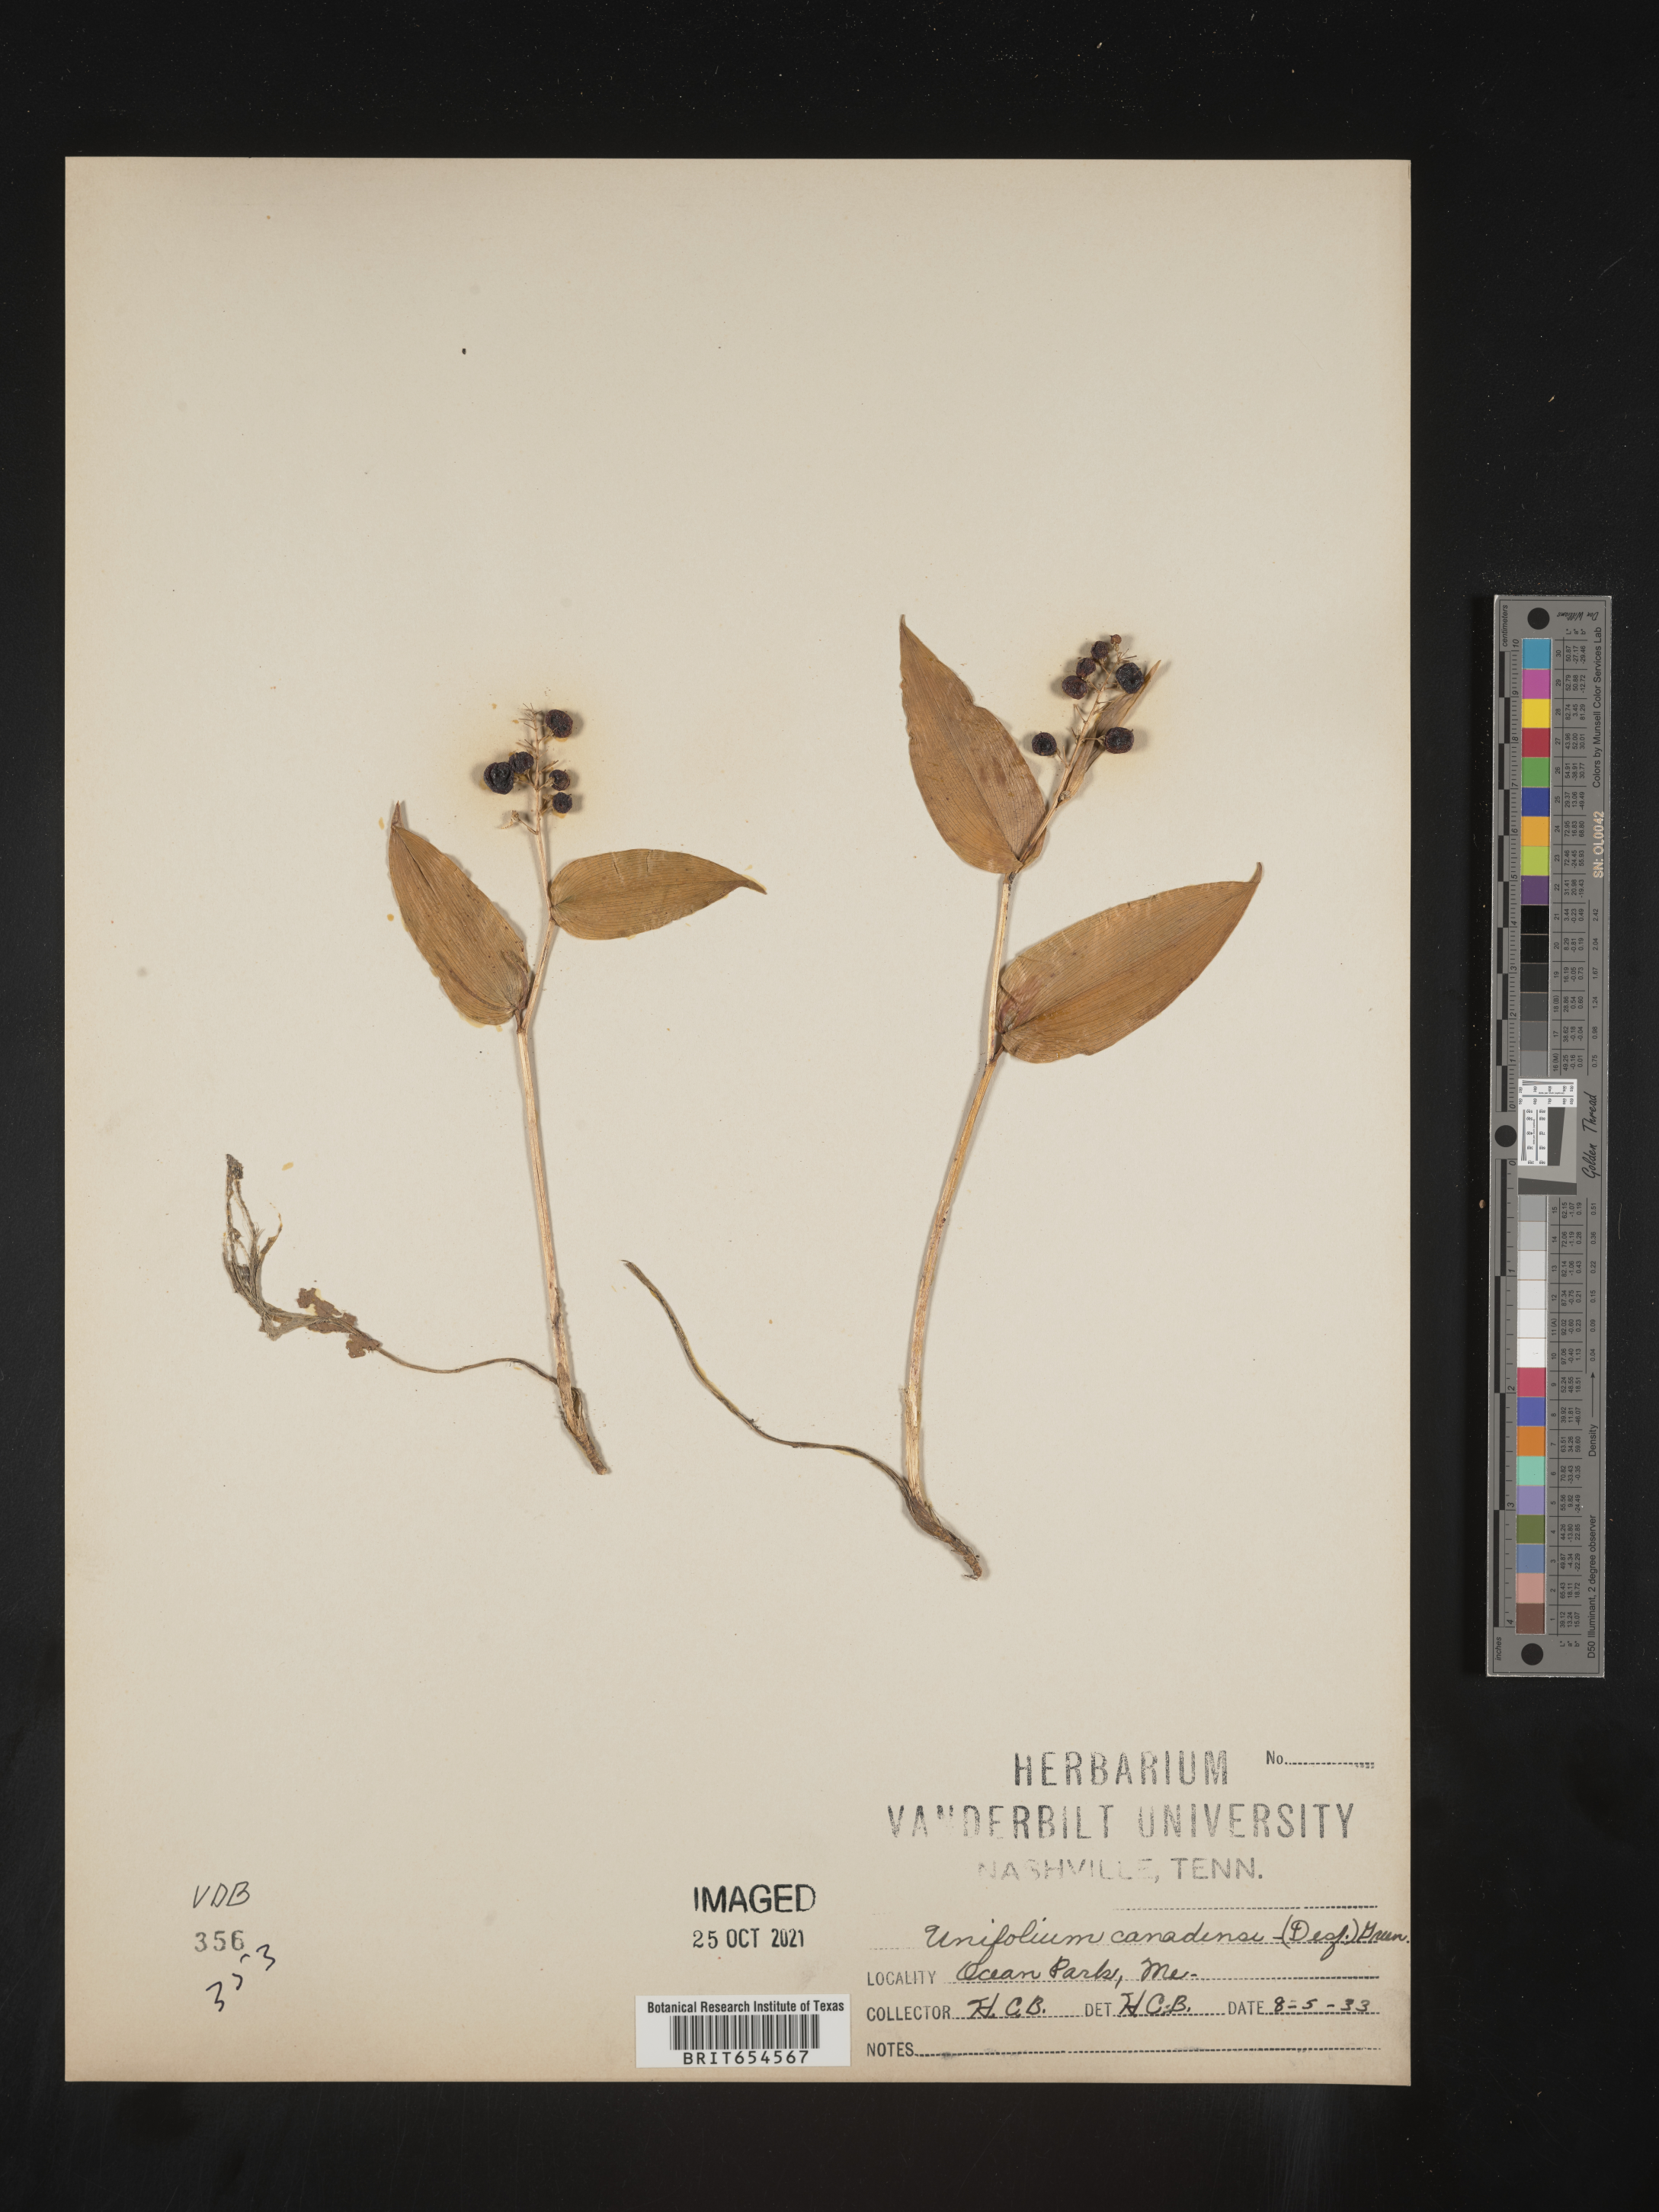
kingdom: Plantae
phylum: Tracheophyta
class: Liliopsida
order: Asparagales
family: Asparagaceae
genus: Maianthemum
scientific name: Maianthemum canadense
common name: False lily-of-the-valley
